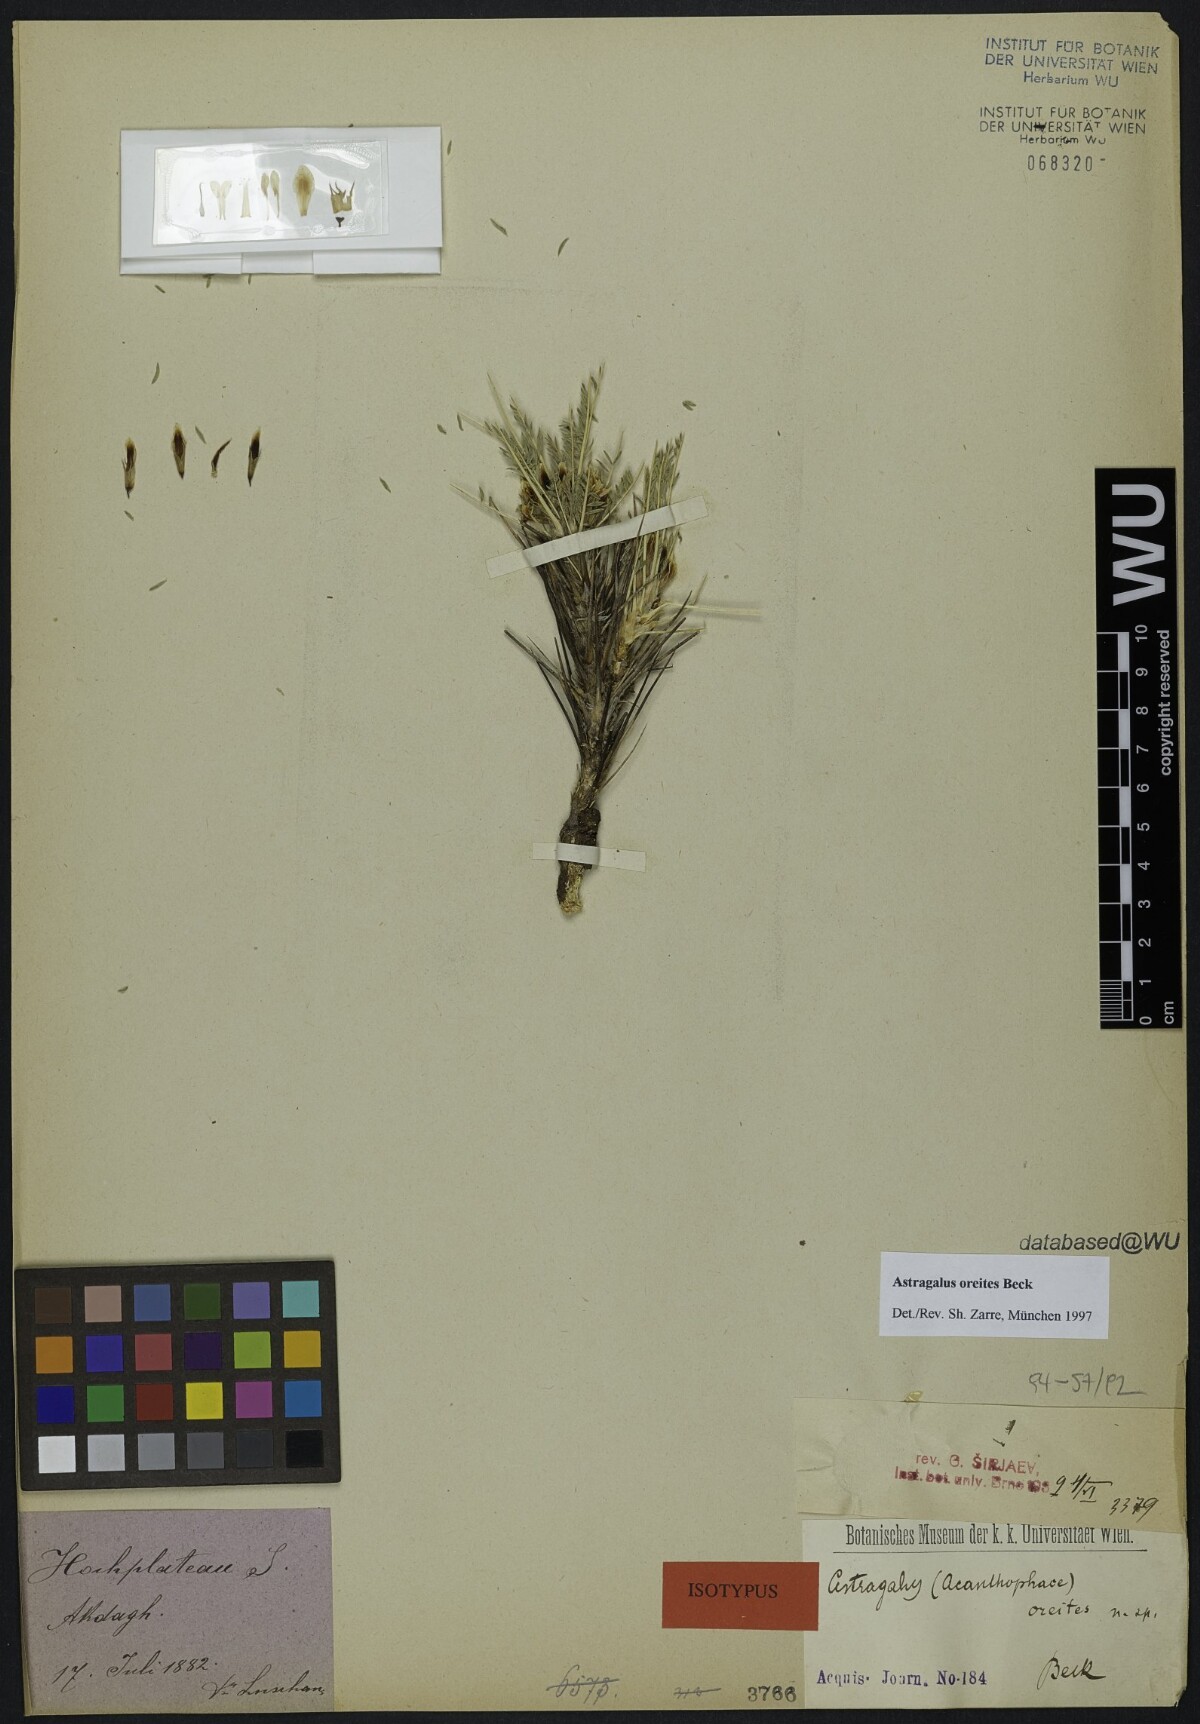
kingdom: Plantae
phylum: Tracheophyta
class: Magnoliopsida
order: Fabales
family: Fabaceae
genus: Astragalus
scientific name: Astragalus oreites
